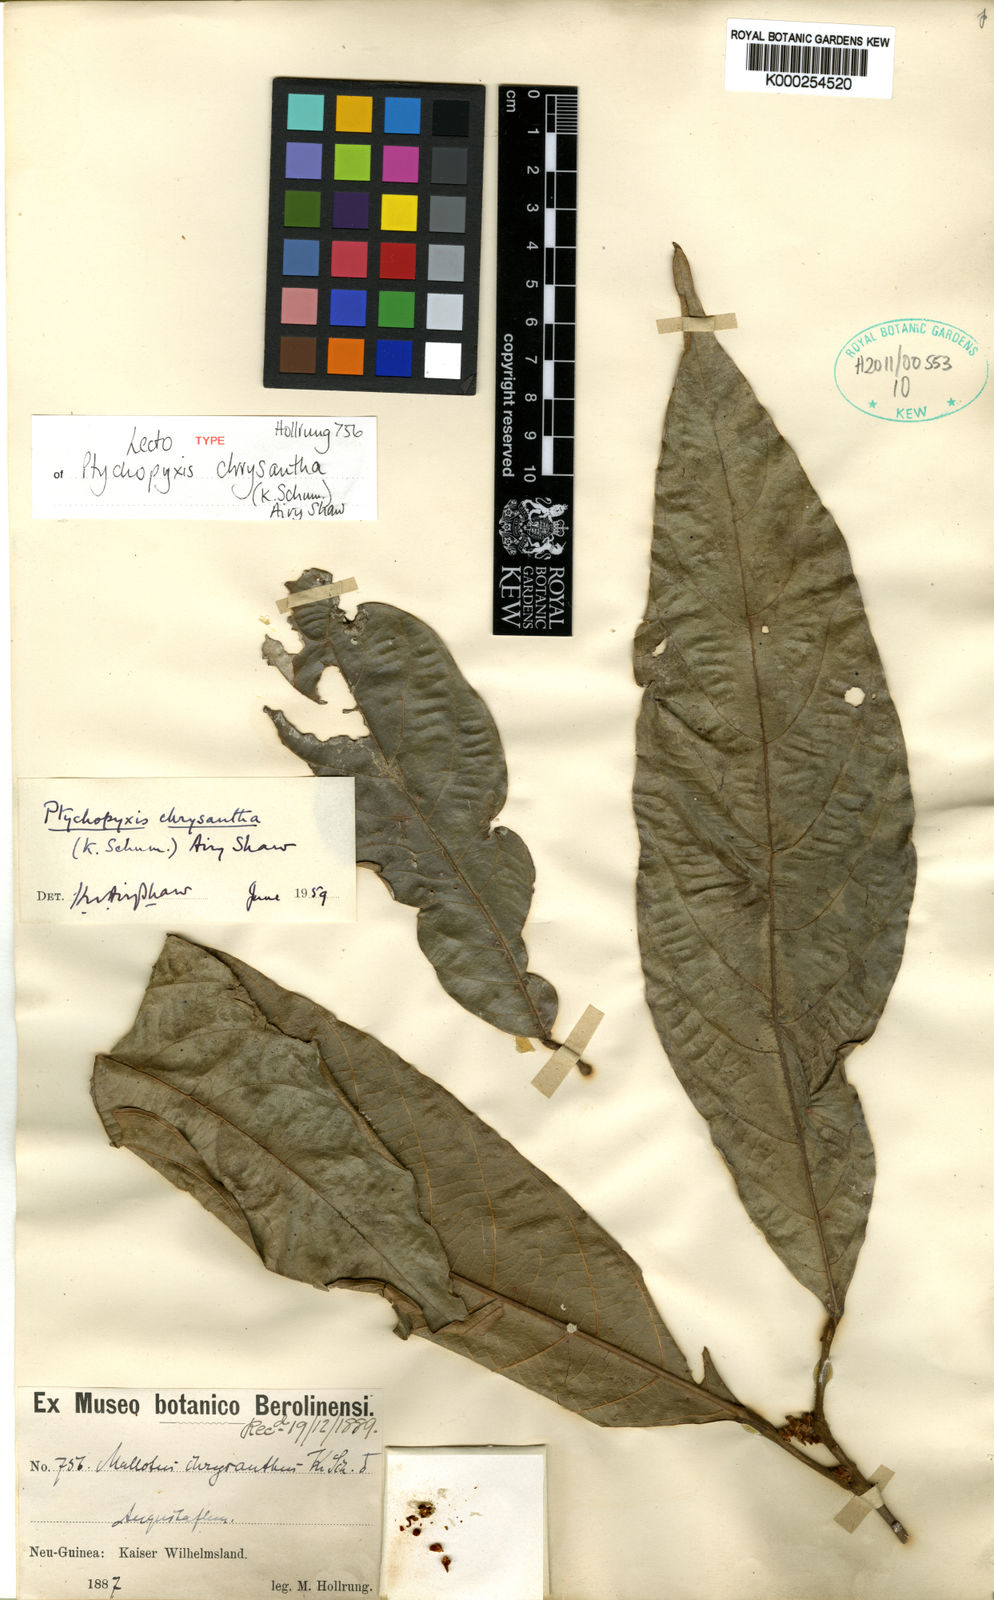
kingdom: Plantae
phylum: Tracheophyta
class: Magnoliopsida
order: Malpighiales
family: Euphorbiaceae
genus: Ptychopyxis
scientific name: Ptychopyxis chrysantha
